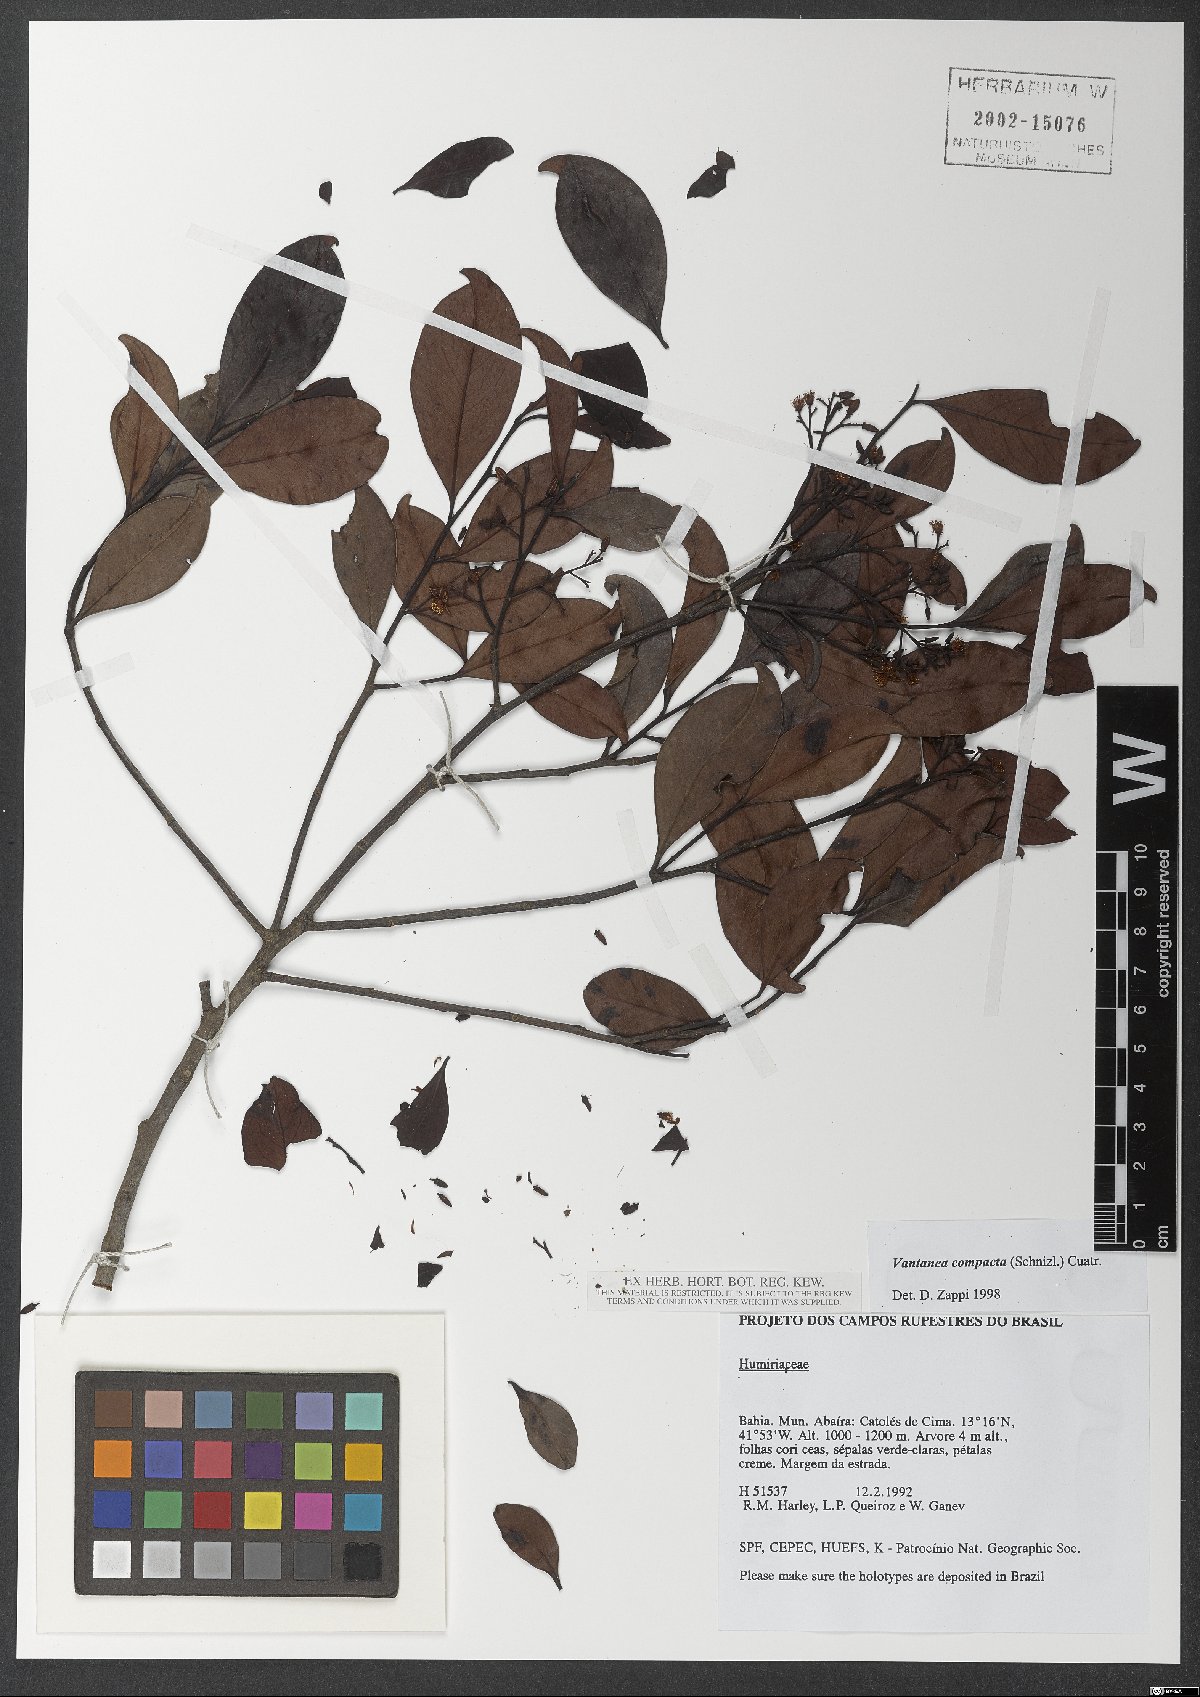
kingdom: Plantae
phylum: Tracheophyta
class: Magnoliopsida
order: Malpighiales
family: Humiriaceae
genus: Vantanea
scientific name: Vantanea compacta
